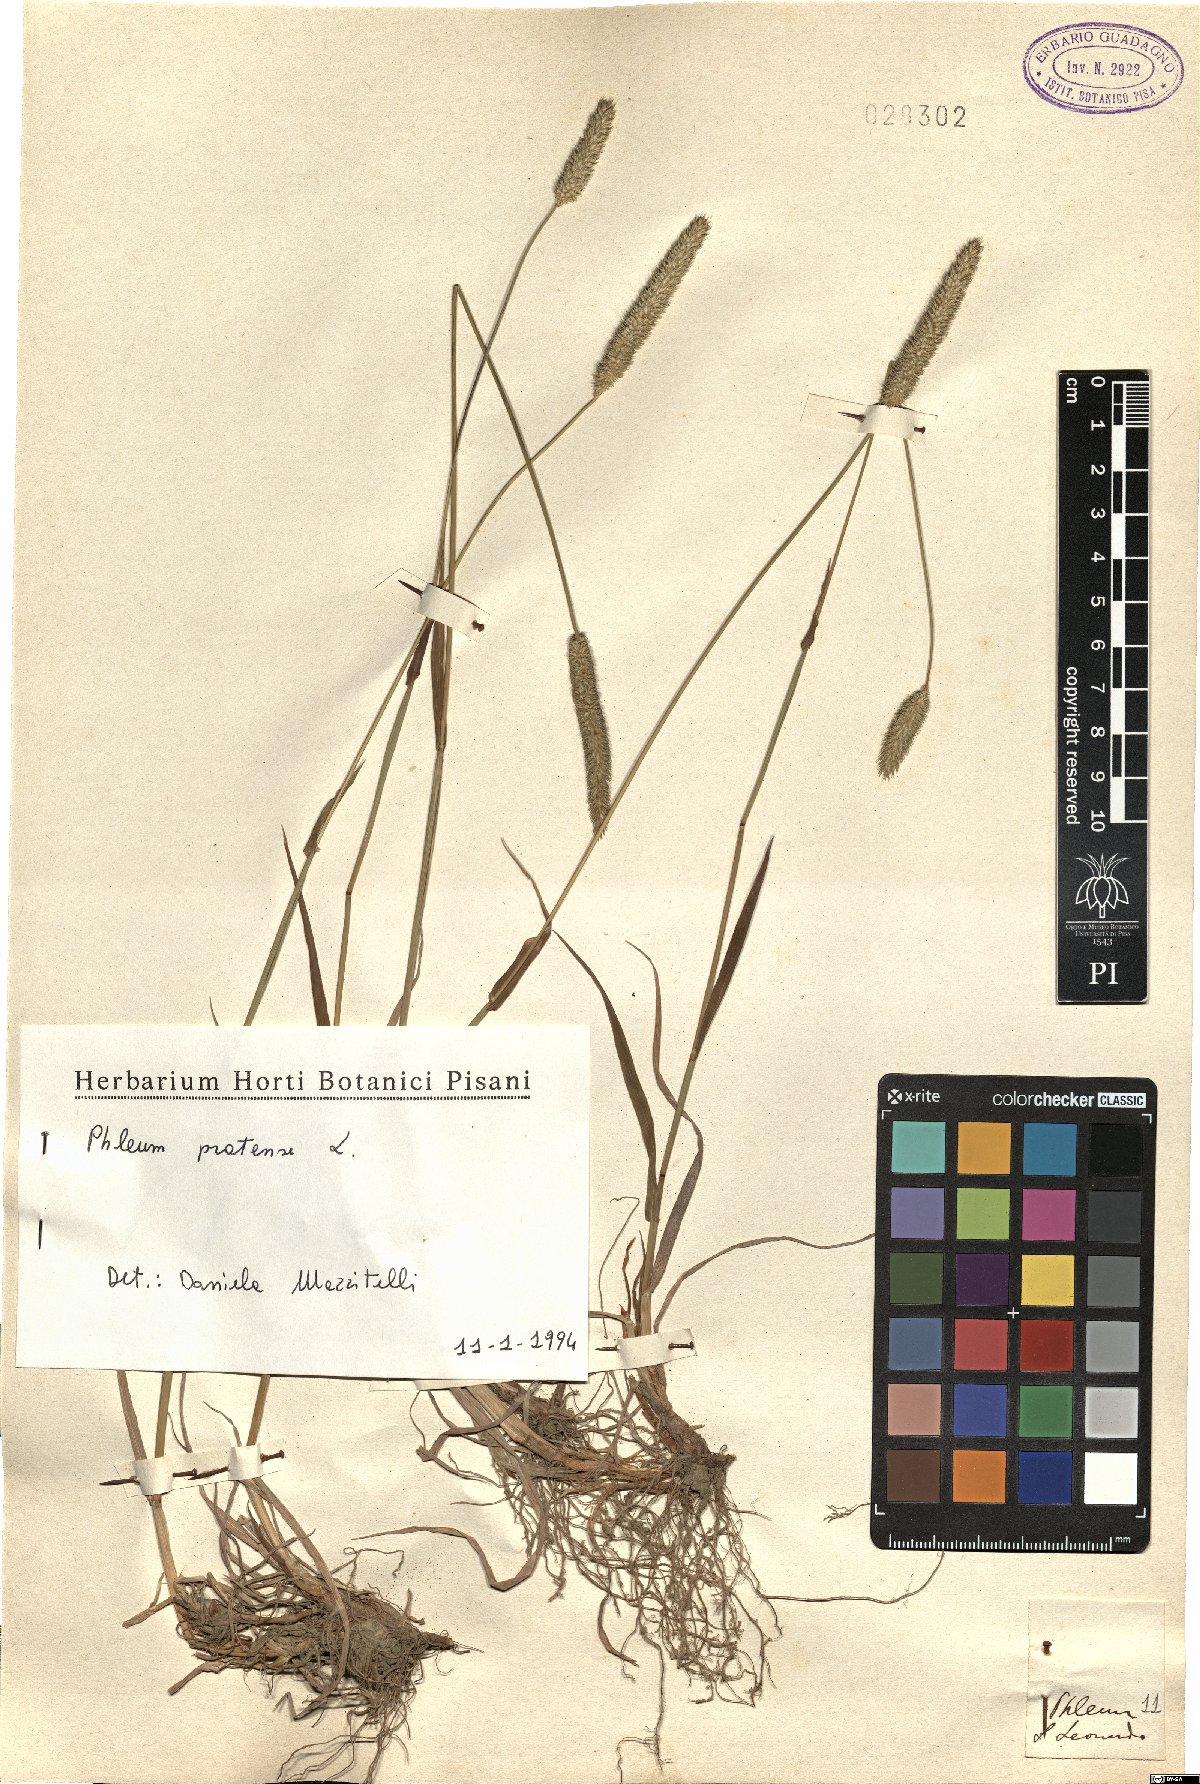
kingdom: Plantae
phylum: Tracheophyta
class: Liliopsida
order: Poales
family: Poaceae
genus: Phleum
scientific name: Phleum pratense
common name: Timothy grass
